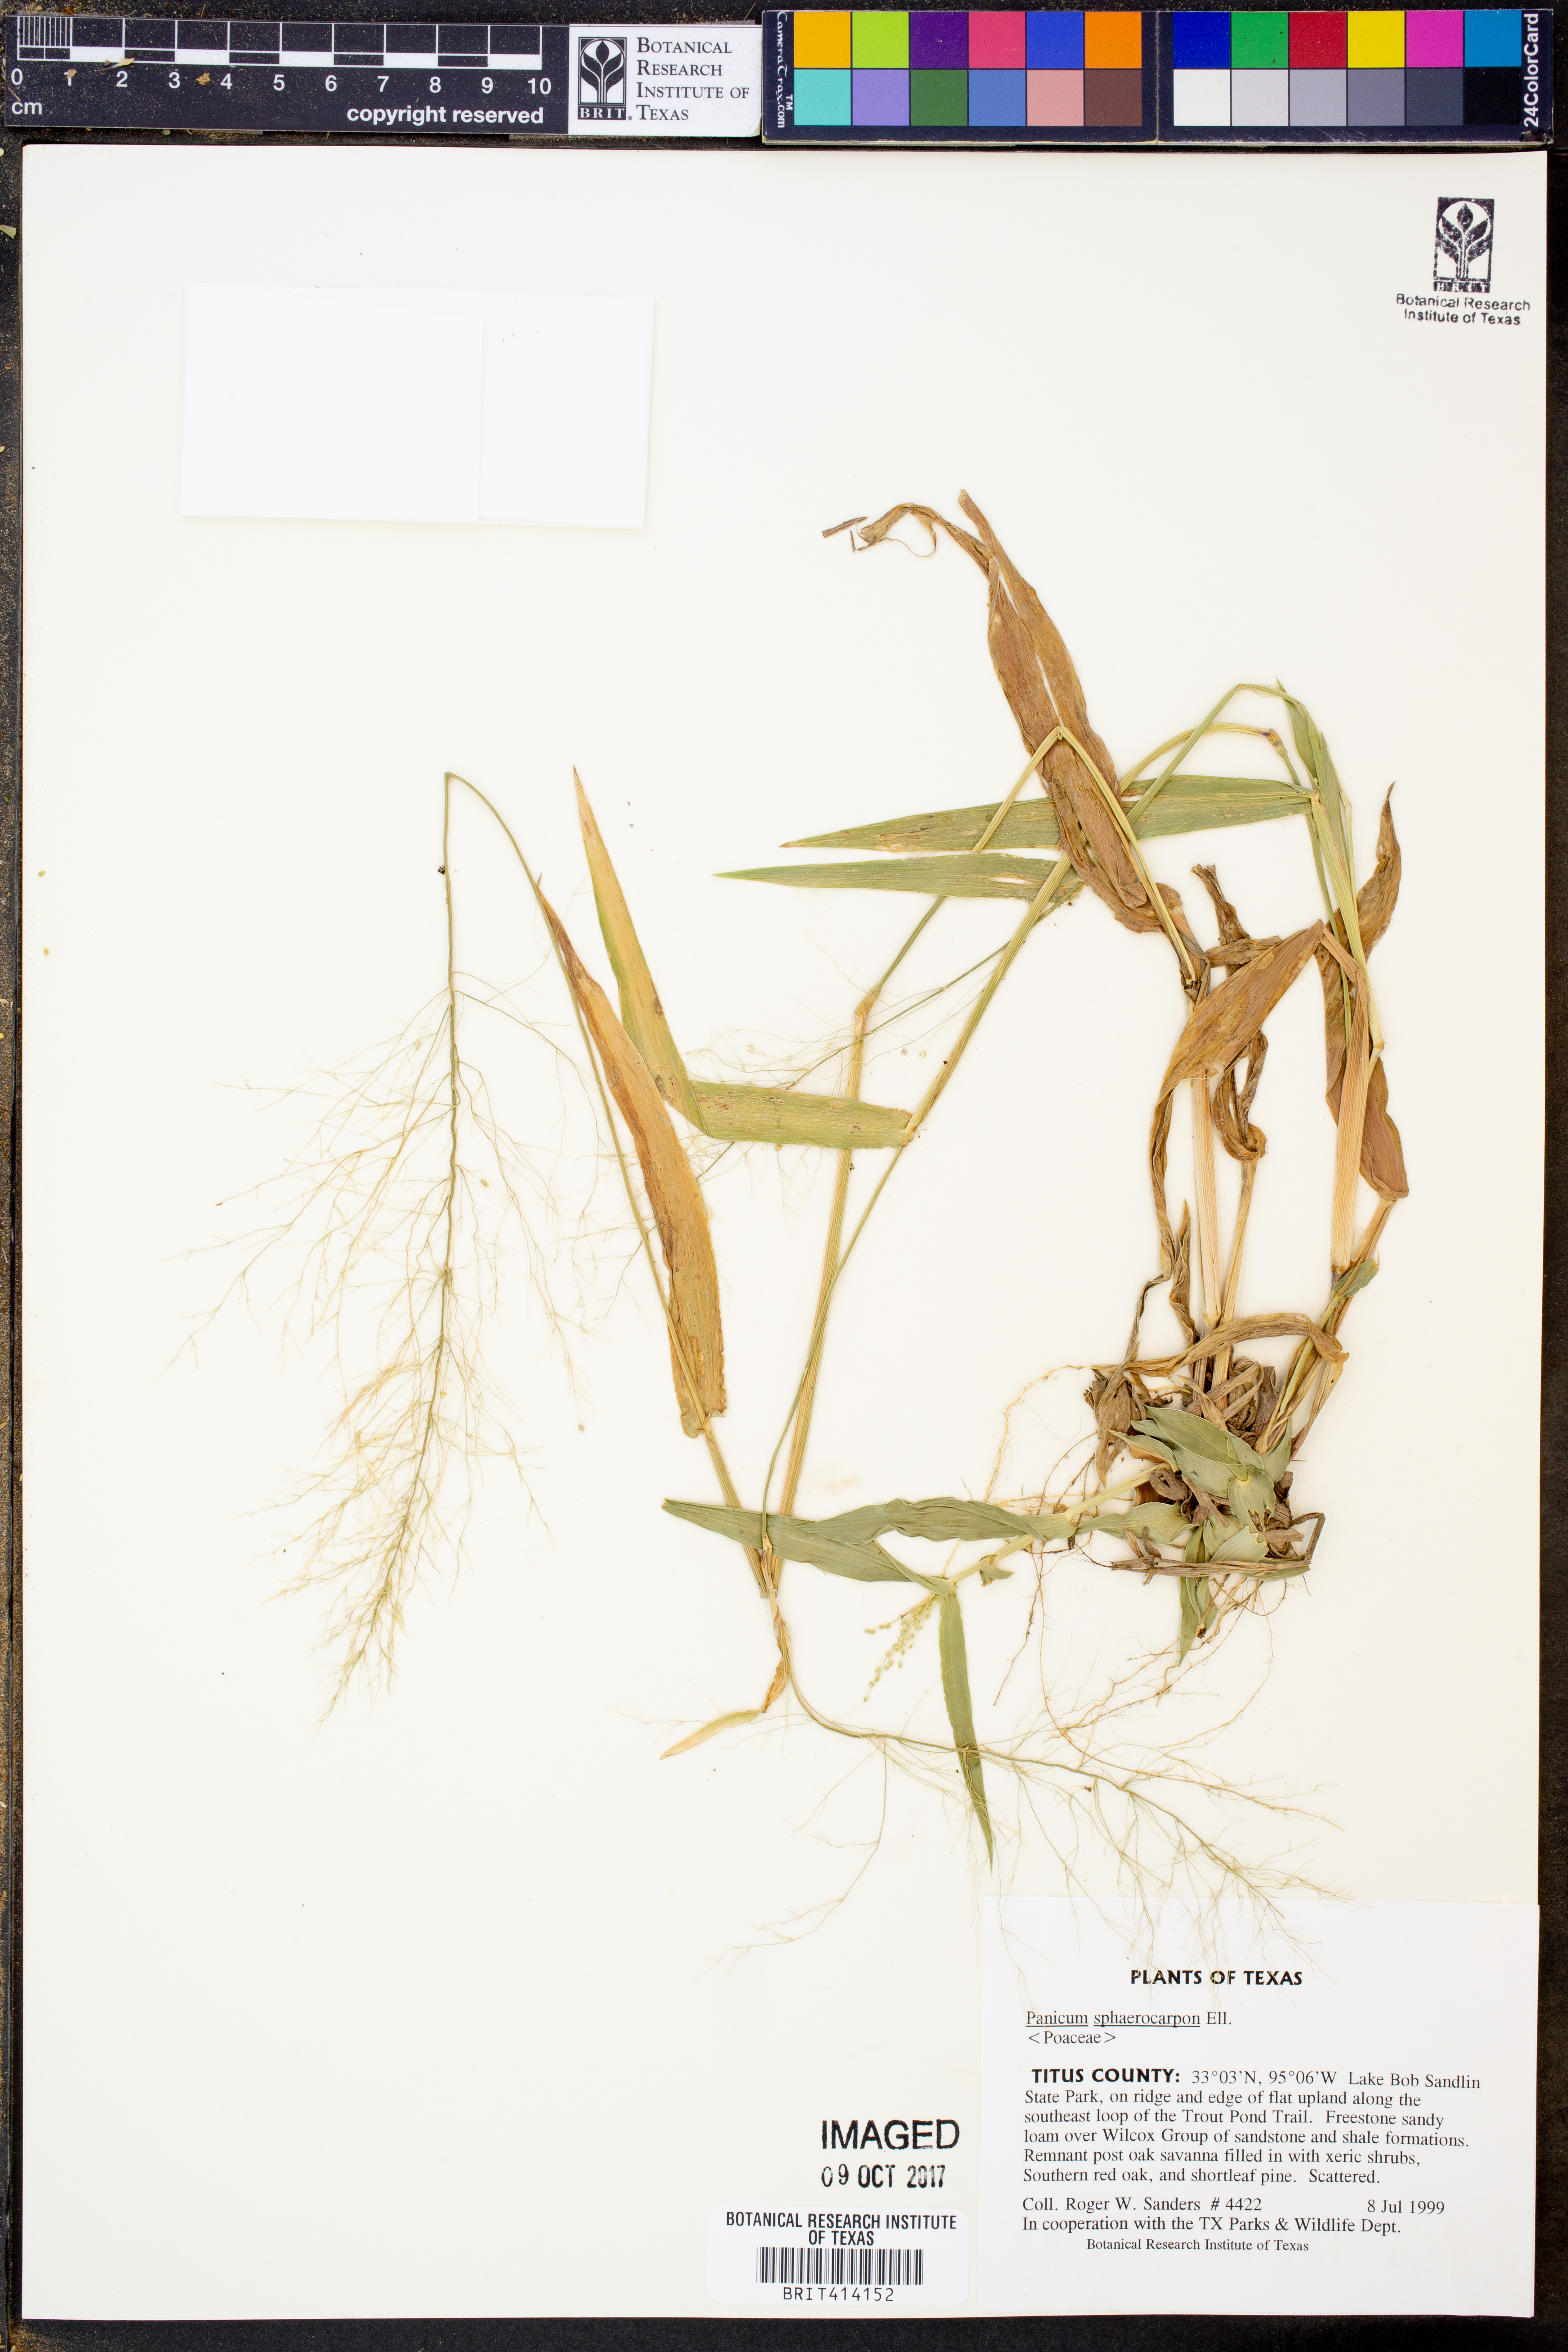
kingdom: Plantae
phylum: Tracheophyta
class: Liliopsida
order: Poales
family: Poaceae
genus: Dichanthelium
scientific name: Dichanthelium sphaerocarpon
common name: Round-fruited panicgrass
